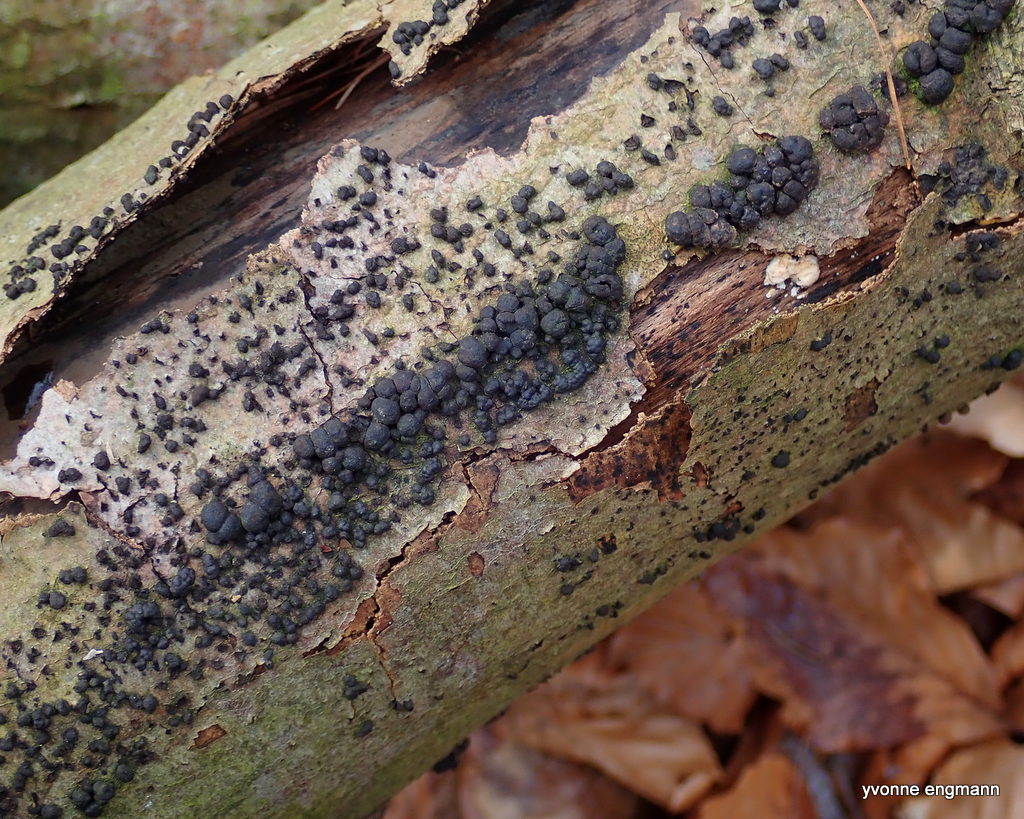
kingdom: Fungi
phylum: Ascomycota
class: Sordariomycetes
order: Xylariales
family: Hypoxylaceae
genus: Jackrogersella
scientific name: Jackrogersella cohaerens
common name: sammenflydende kulbær
